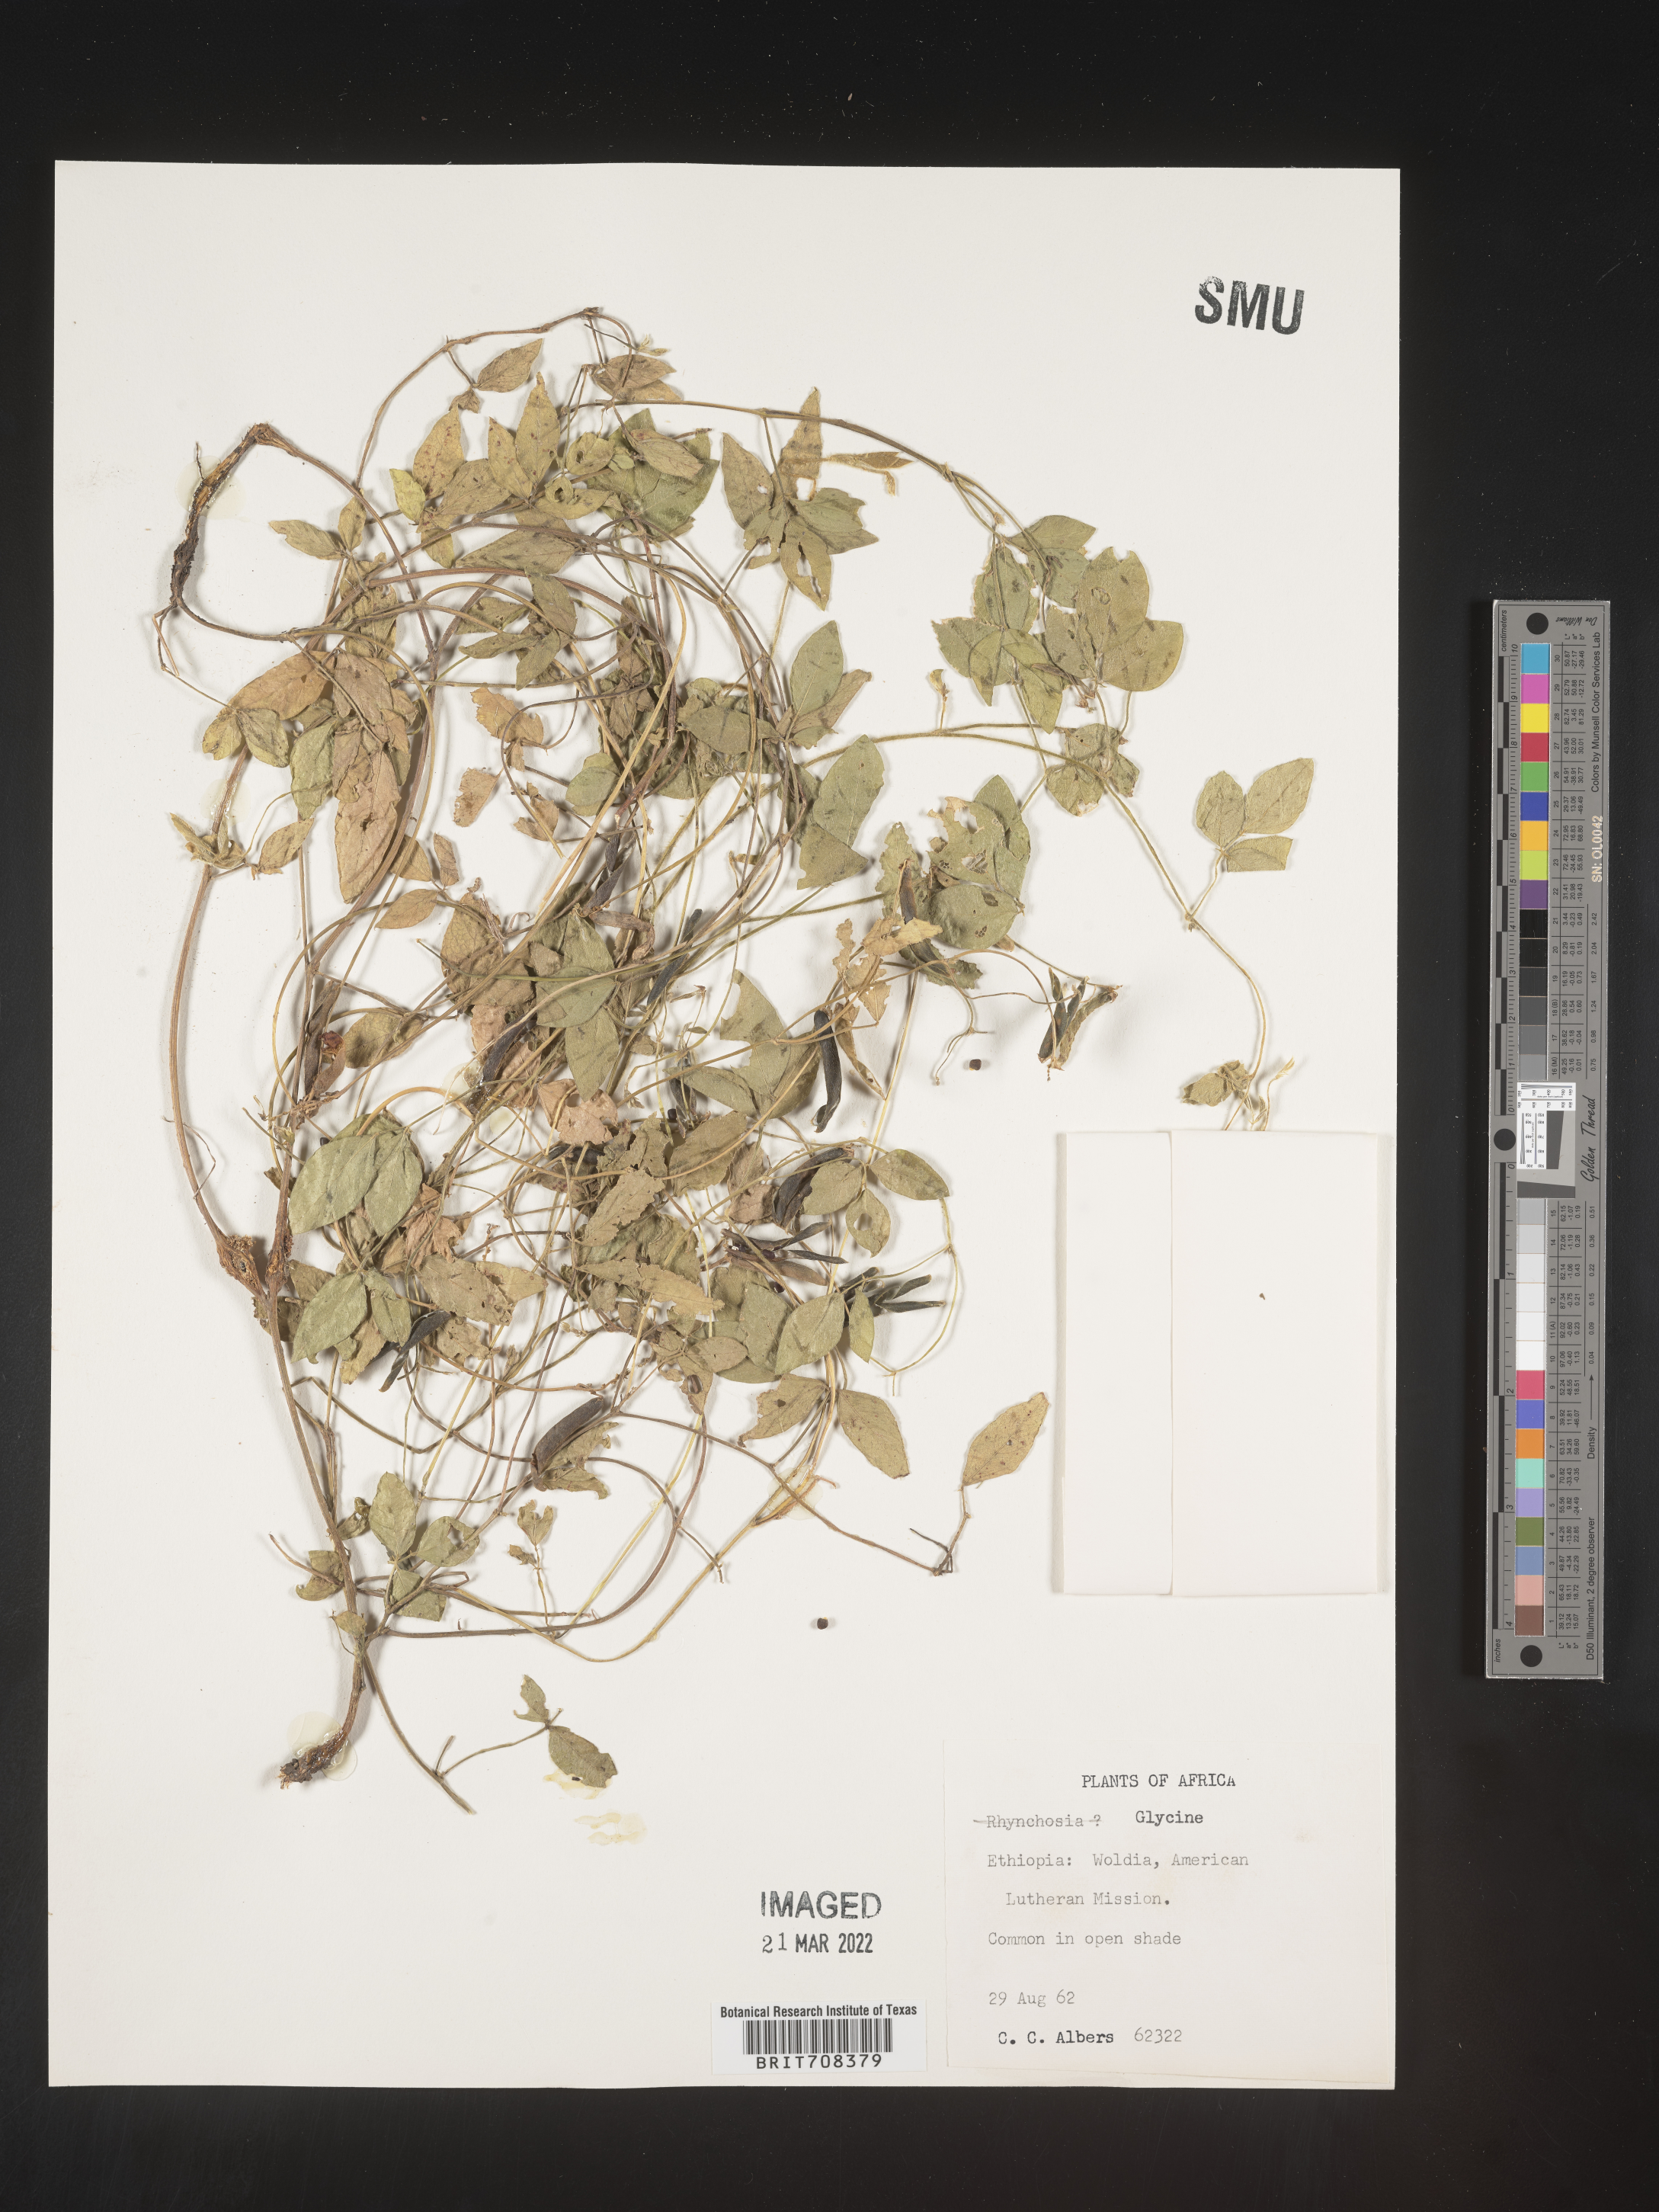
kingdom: Plantae
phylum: Tracheophyta
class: Magnoliopsida
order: Fabales
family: Fabaceae
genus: Glycine
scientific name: Glycine
